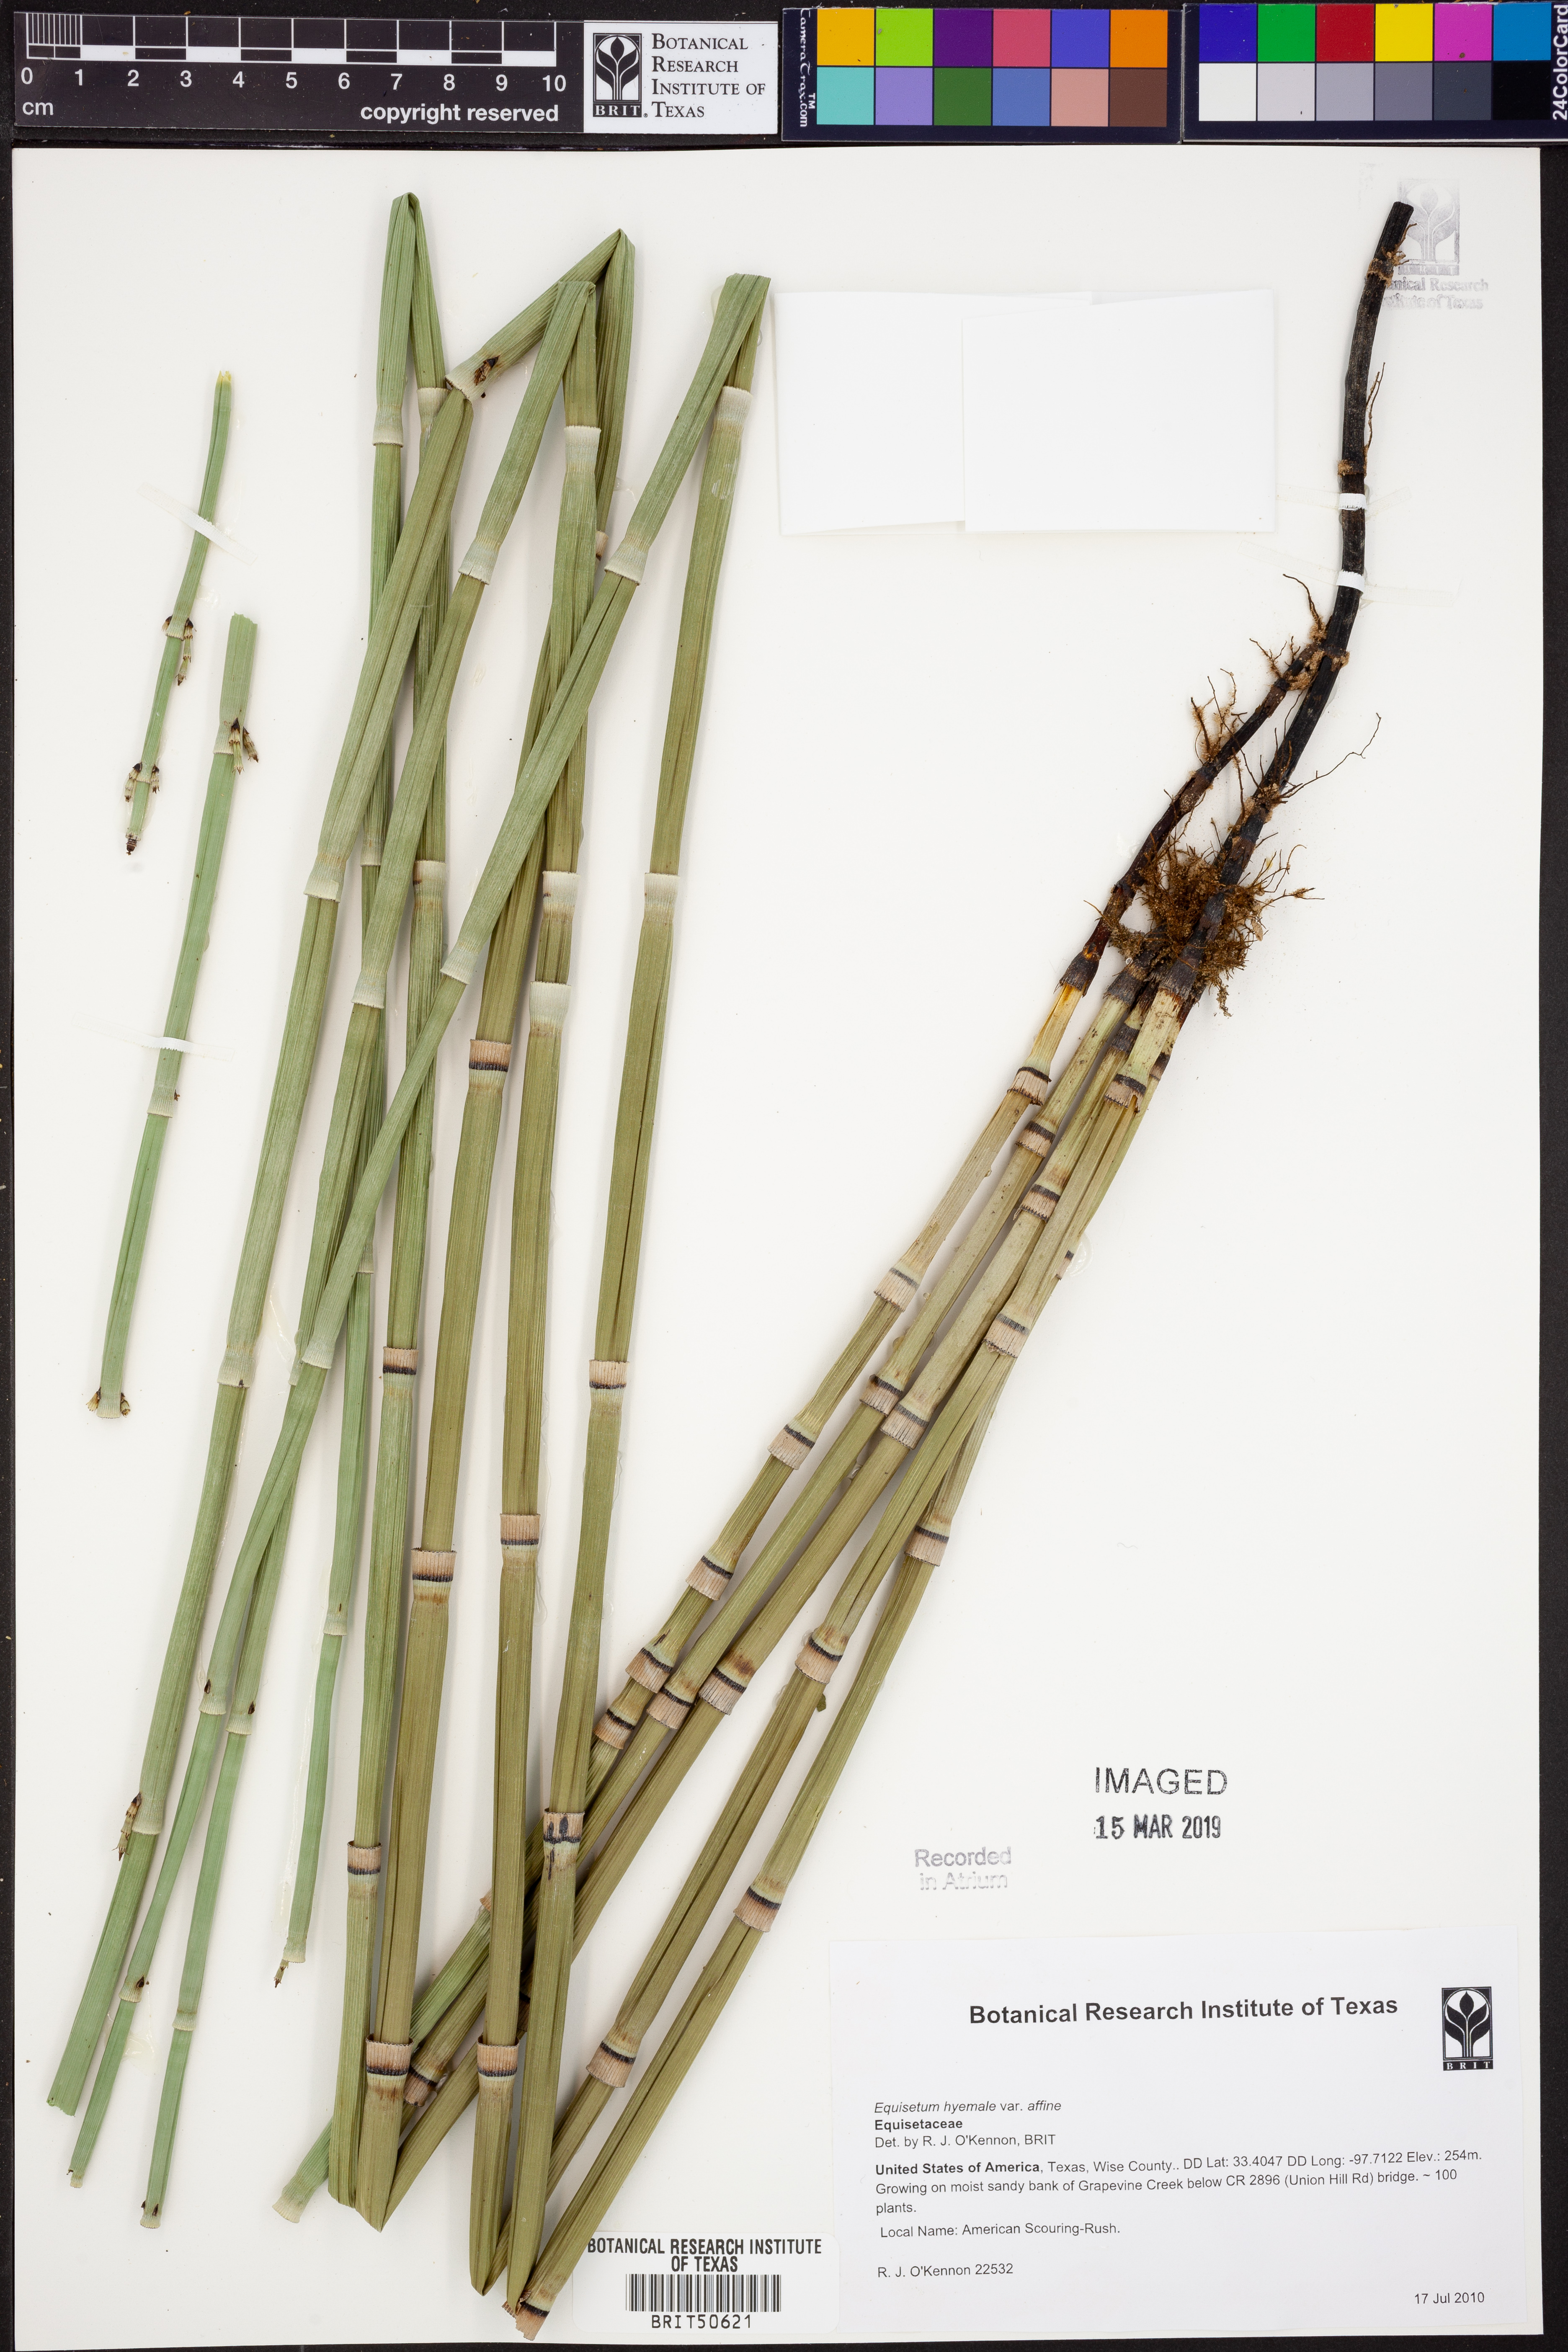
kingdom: Plantae
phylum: Tracheophyta
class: Polypodiopsida
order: Equisetales
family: Equisetaceae
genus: Equisetum
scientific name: Equisetum praealtum
